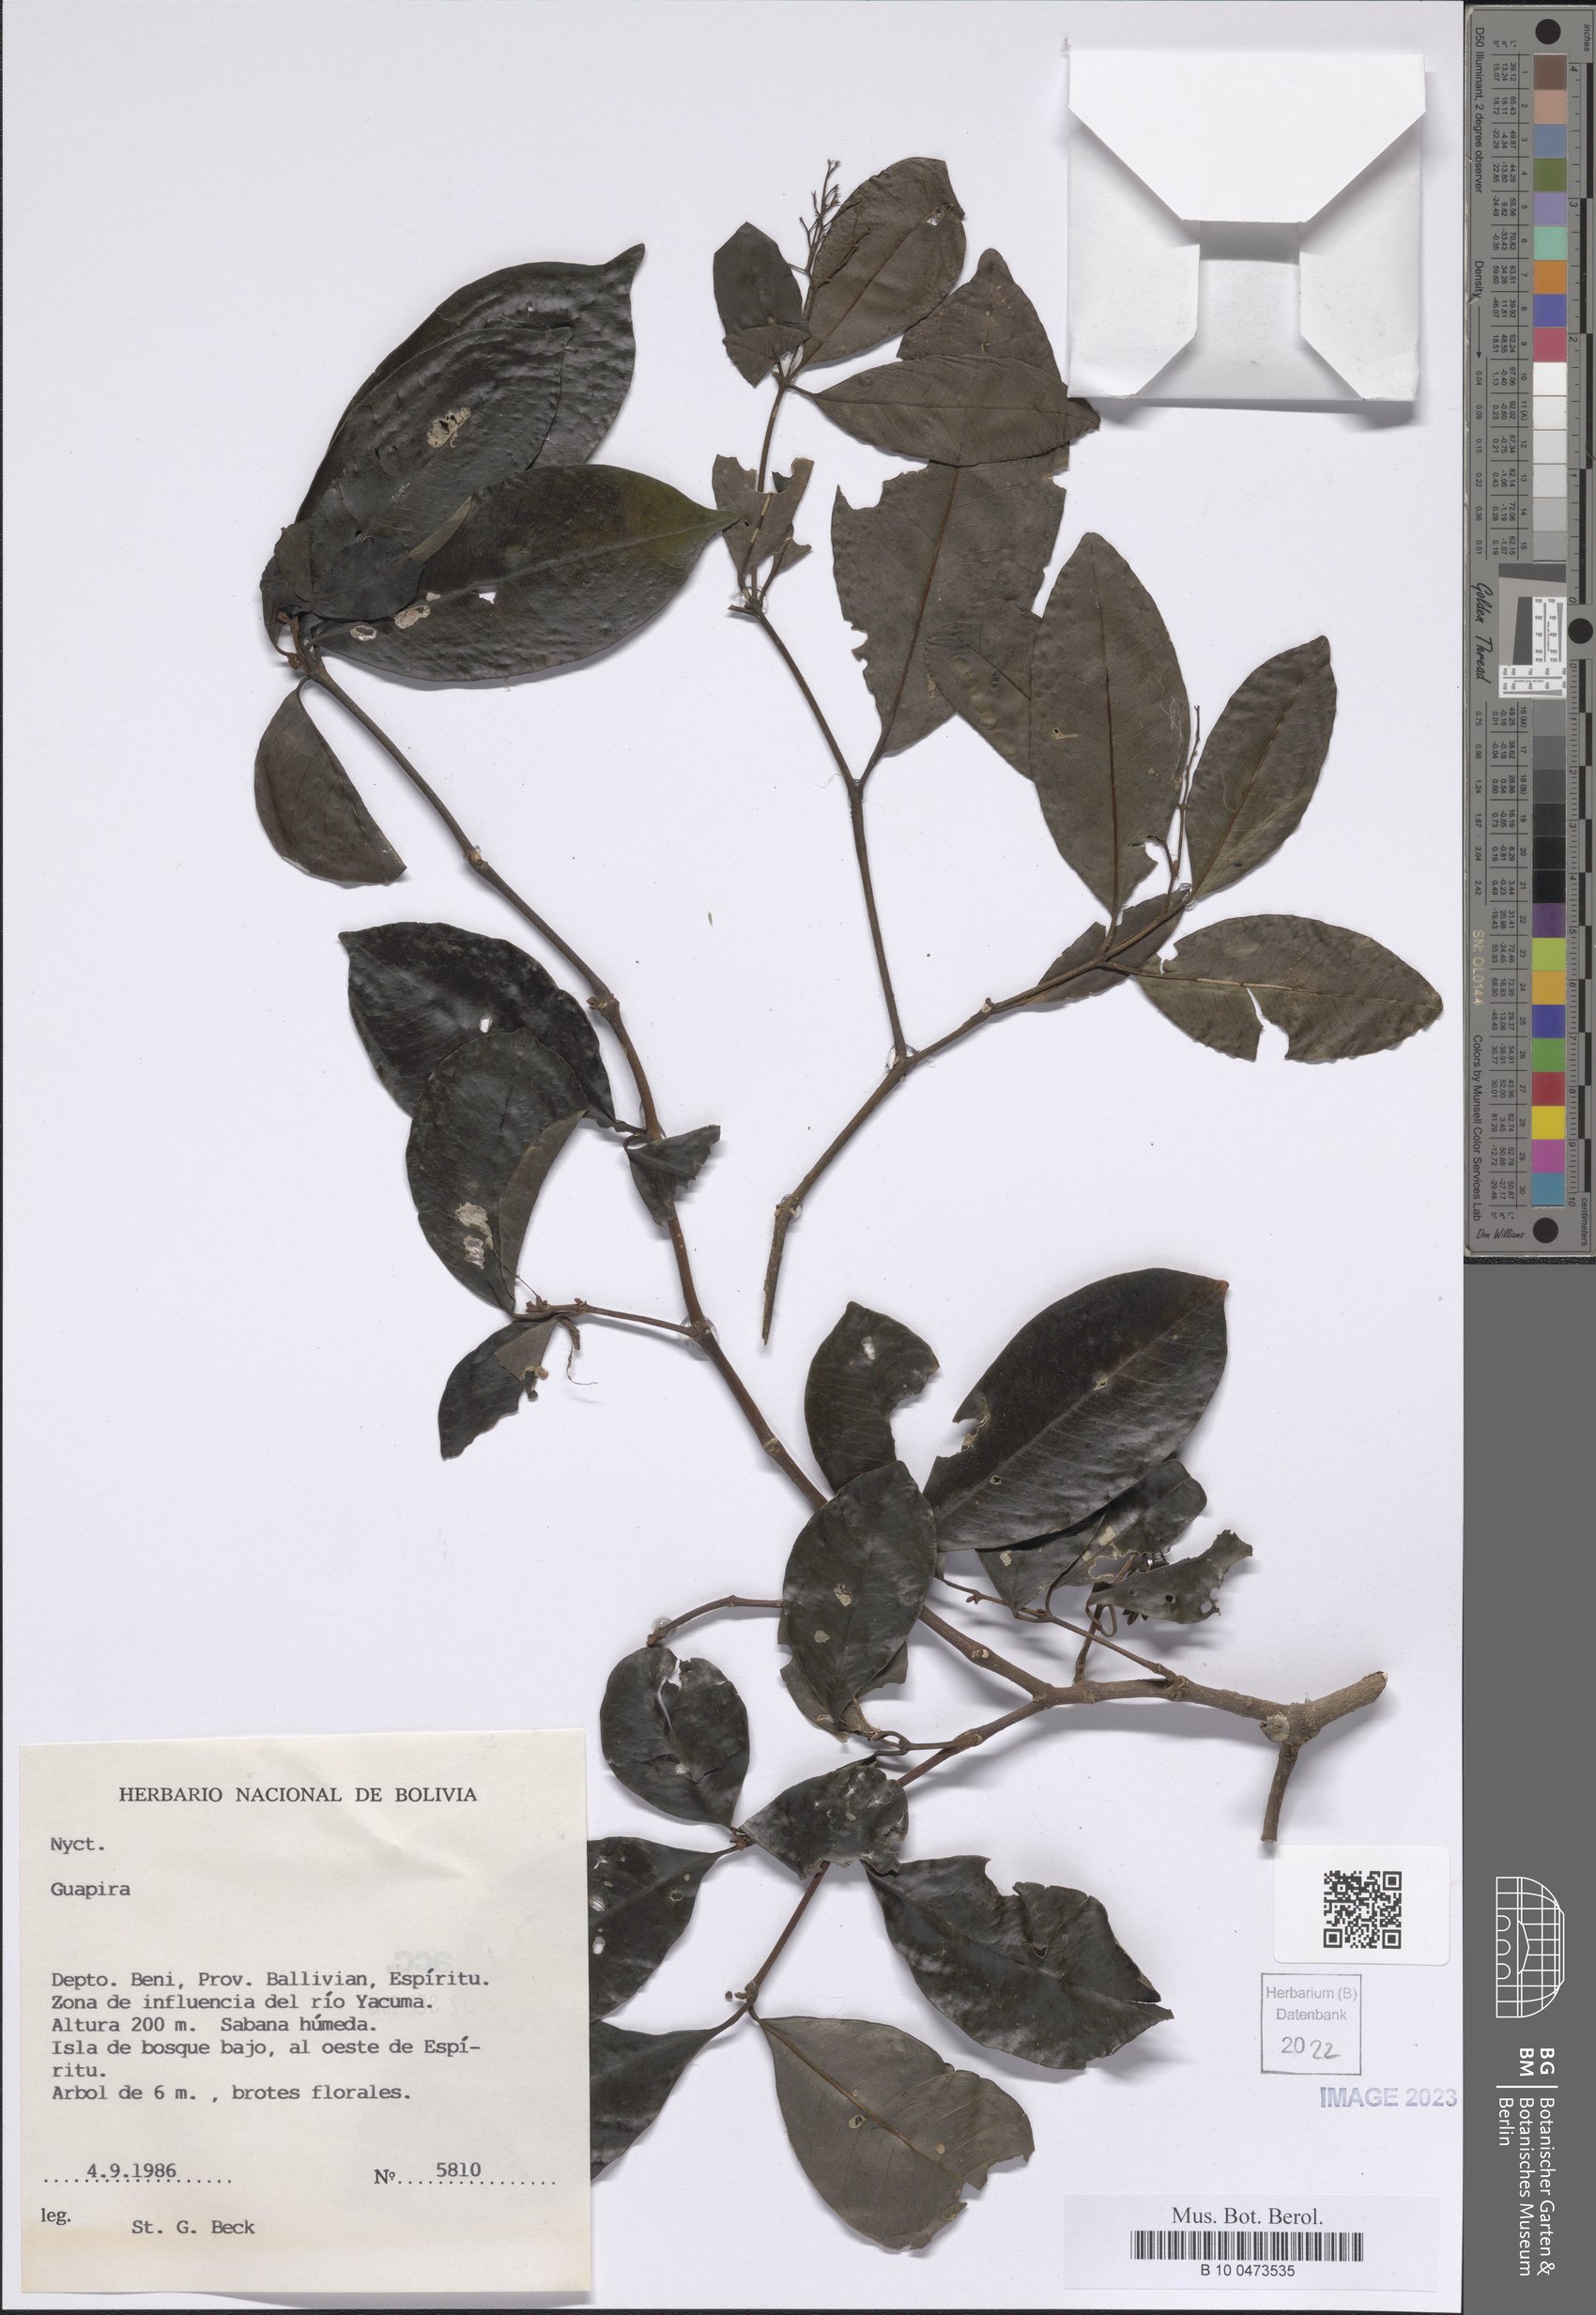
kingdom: Plantae
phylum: Tracheophyta
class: Magnoliopsida
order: Caryophyllales
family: Nyctaginaceae
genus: Guapira
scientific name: Guapira
